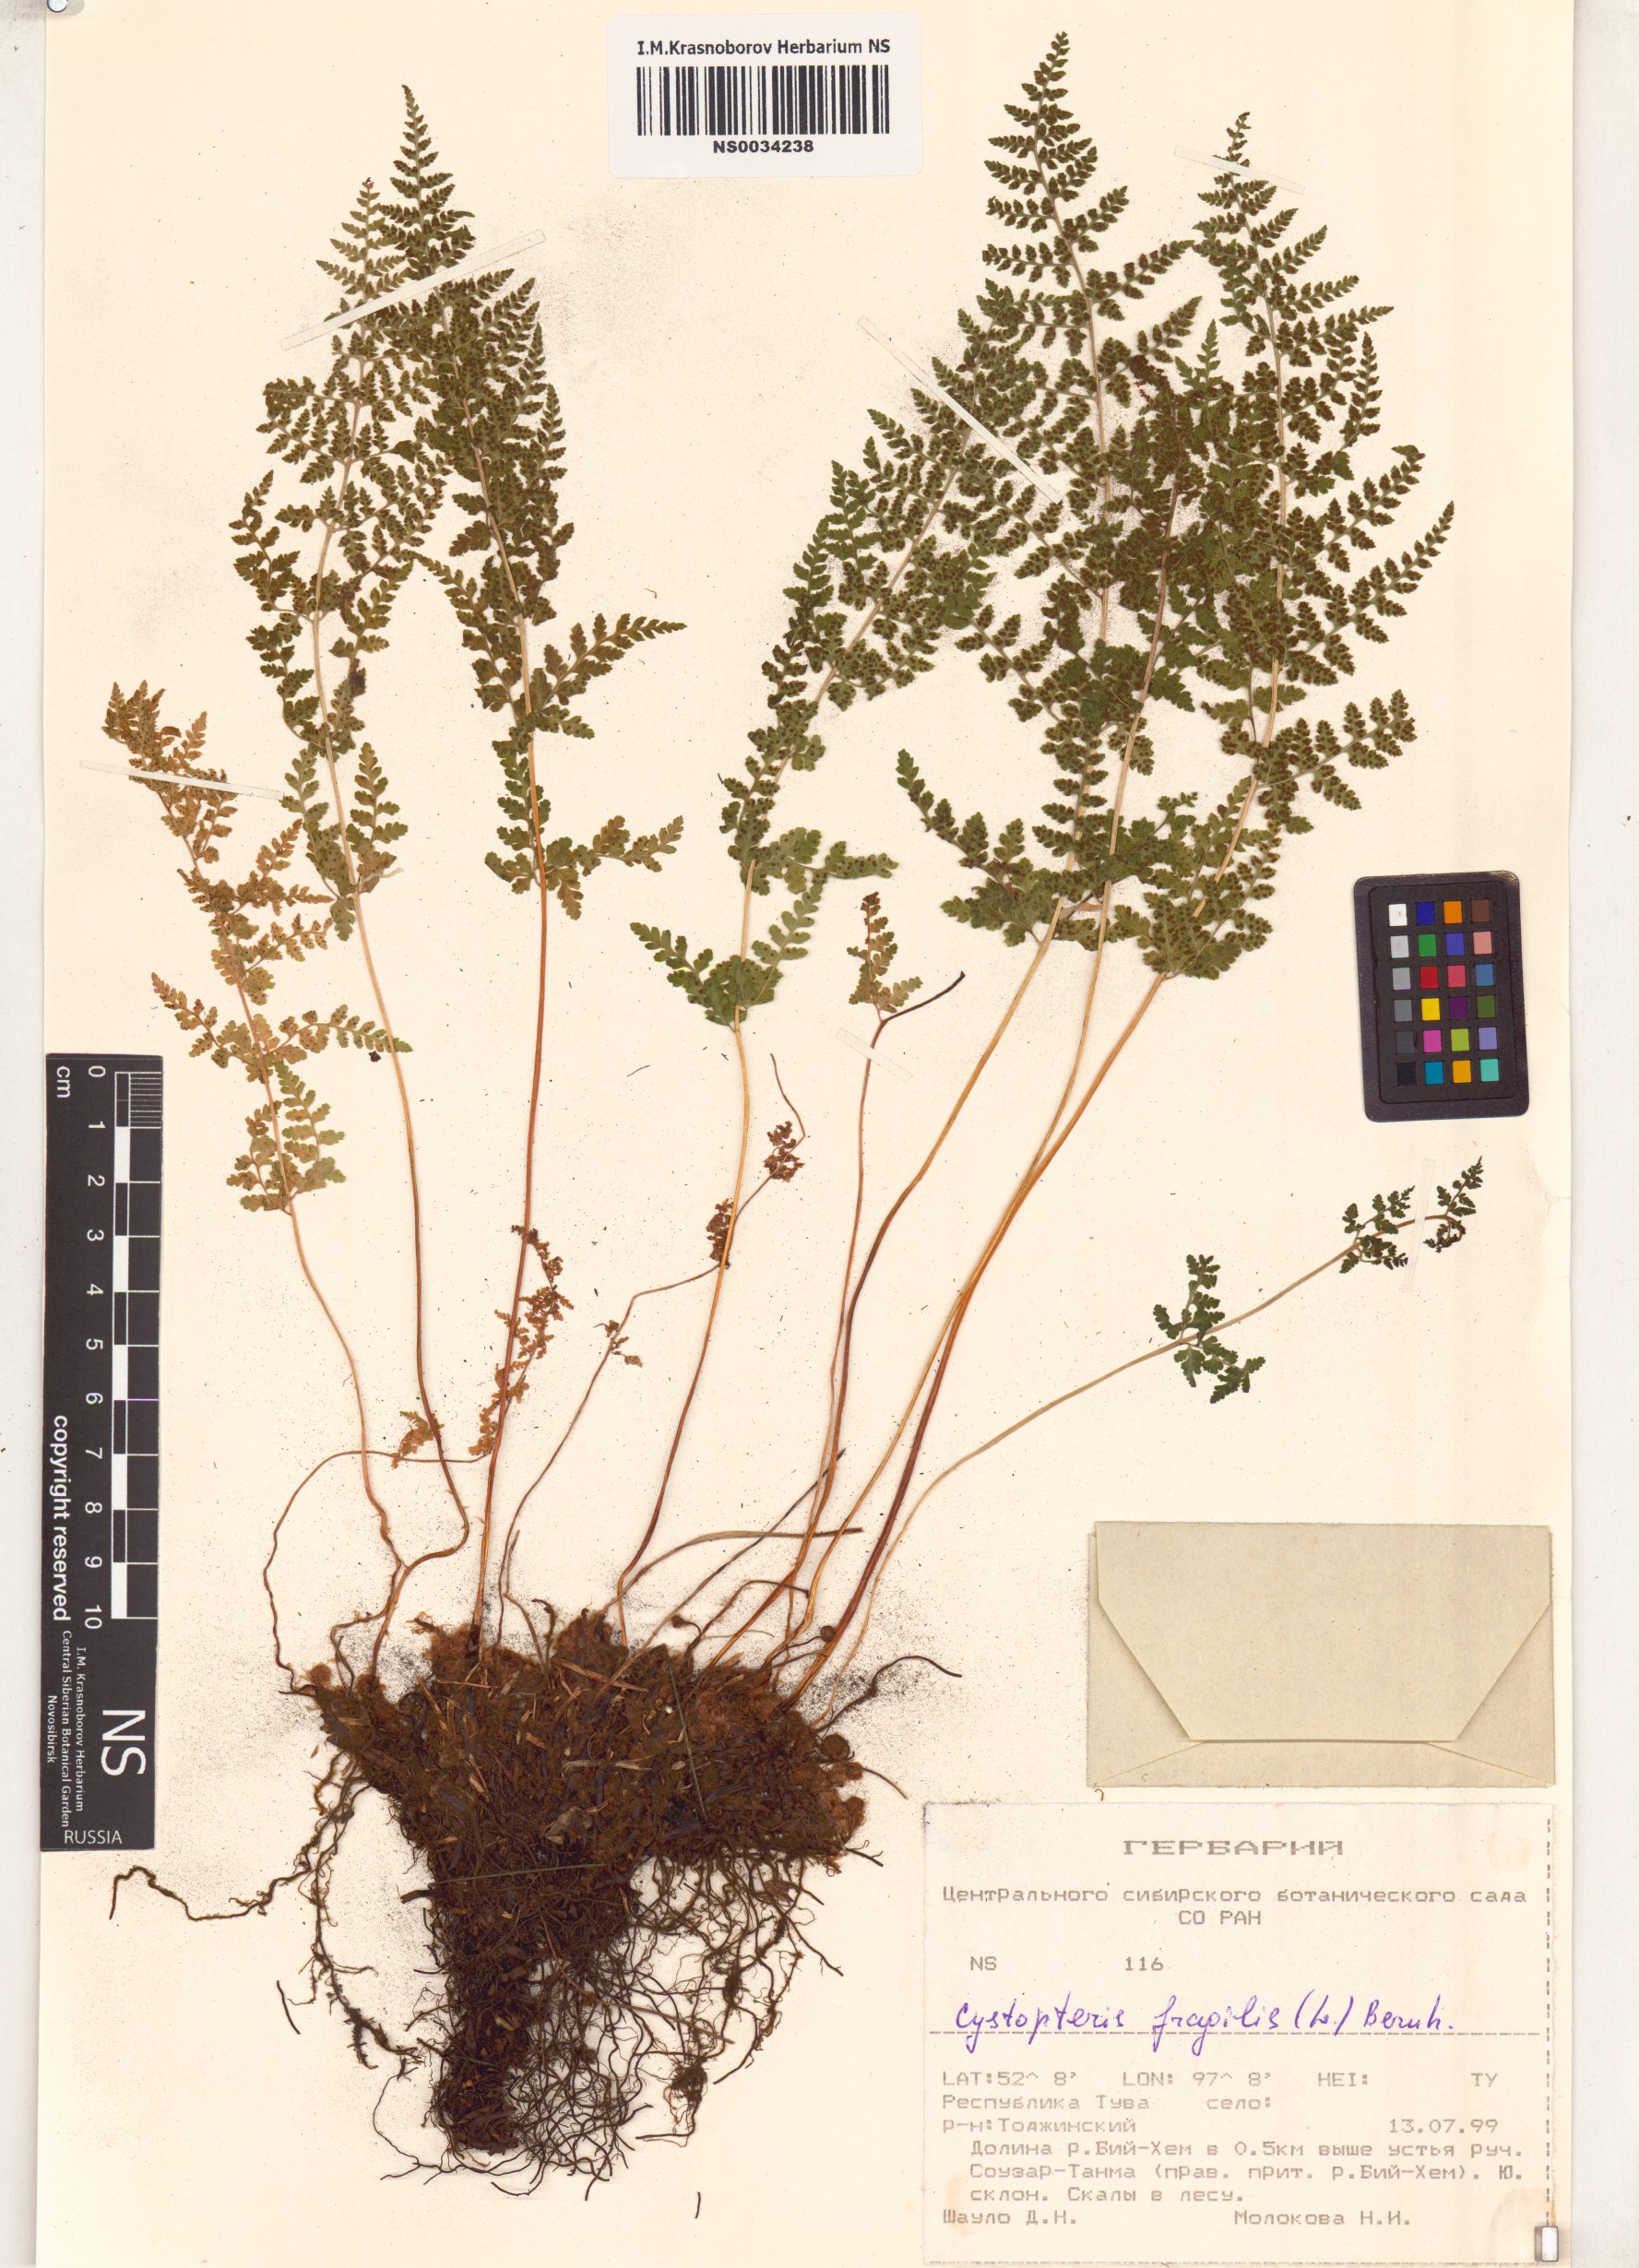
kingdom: Plantae
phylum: Tracheophyta
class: Polypodiopsida
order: Polypodiales
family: Cystopteridaceae
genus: Cystopteris
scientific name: Cystopteris fragilis
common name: Brittle bladder fern
